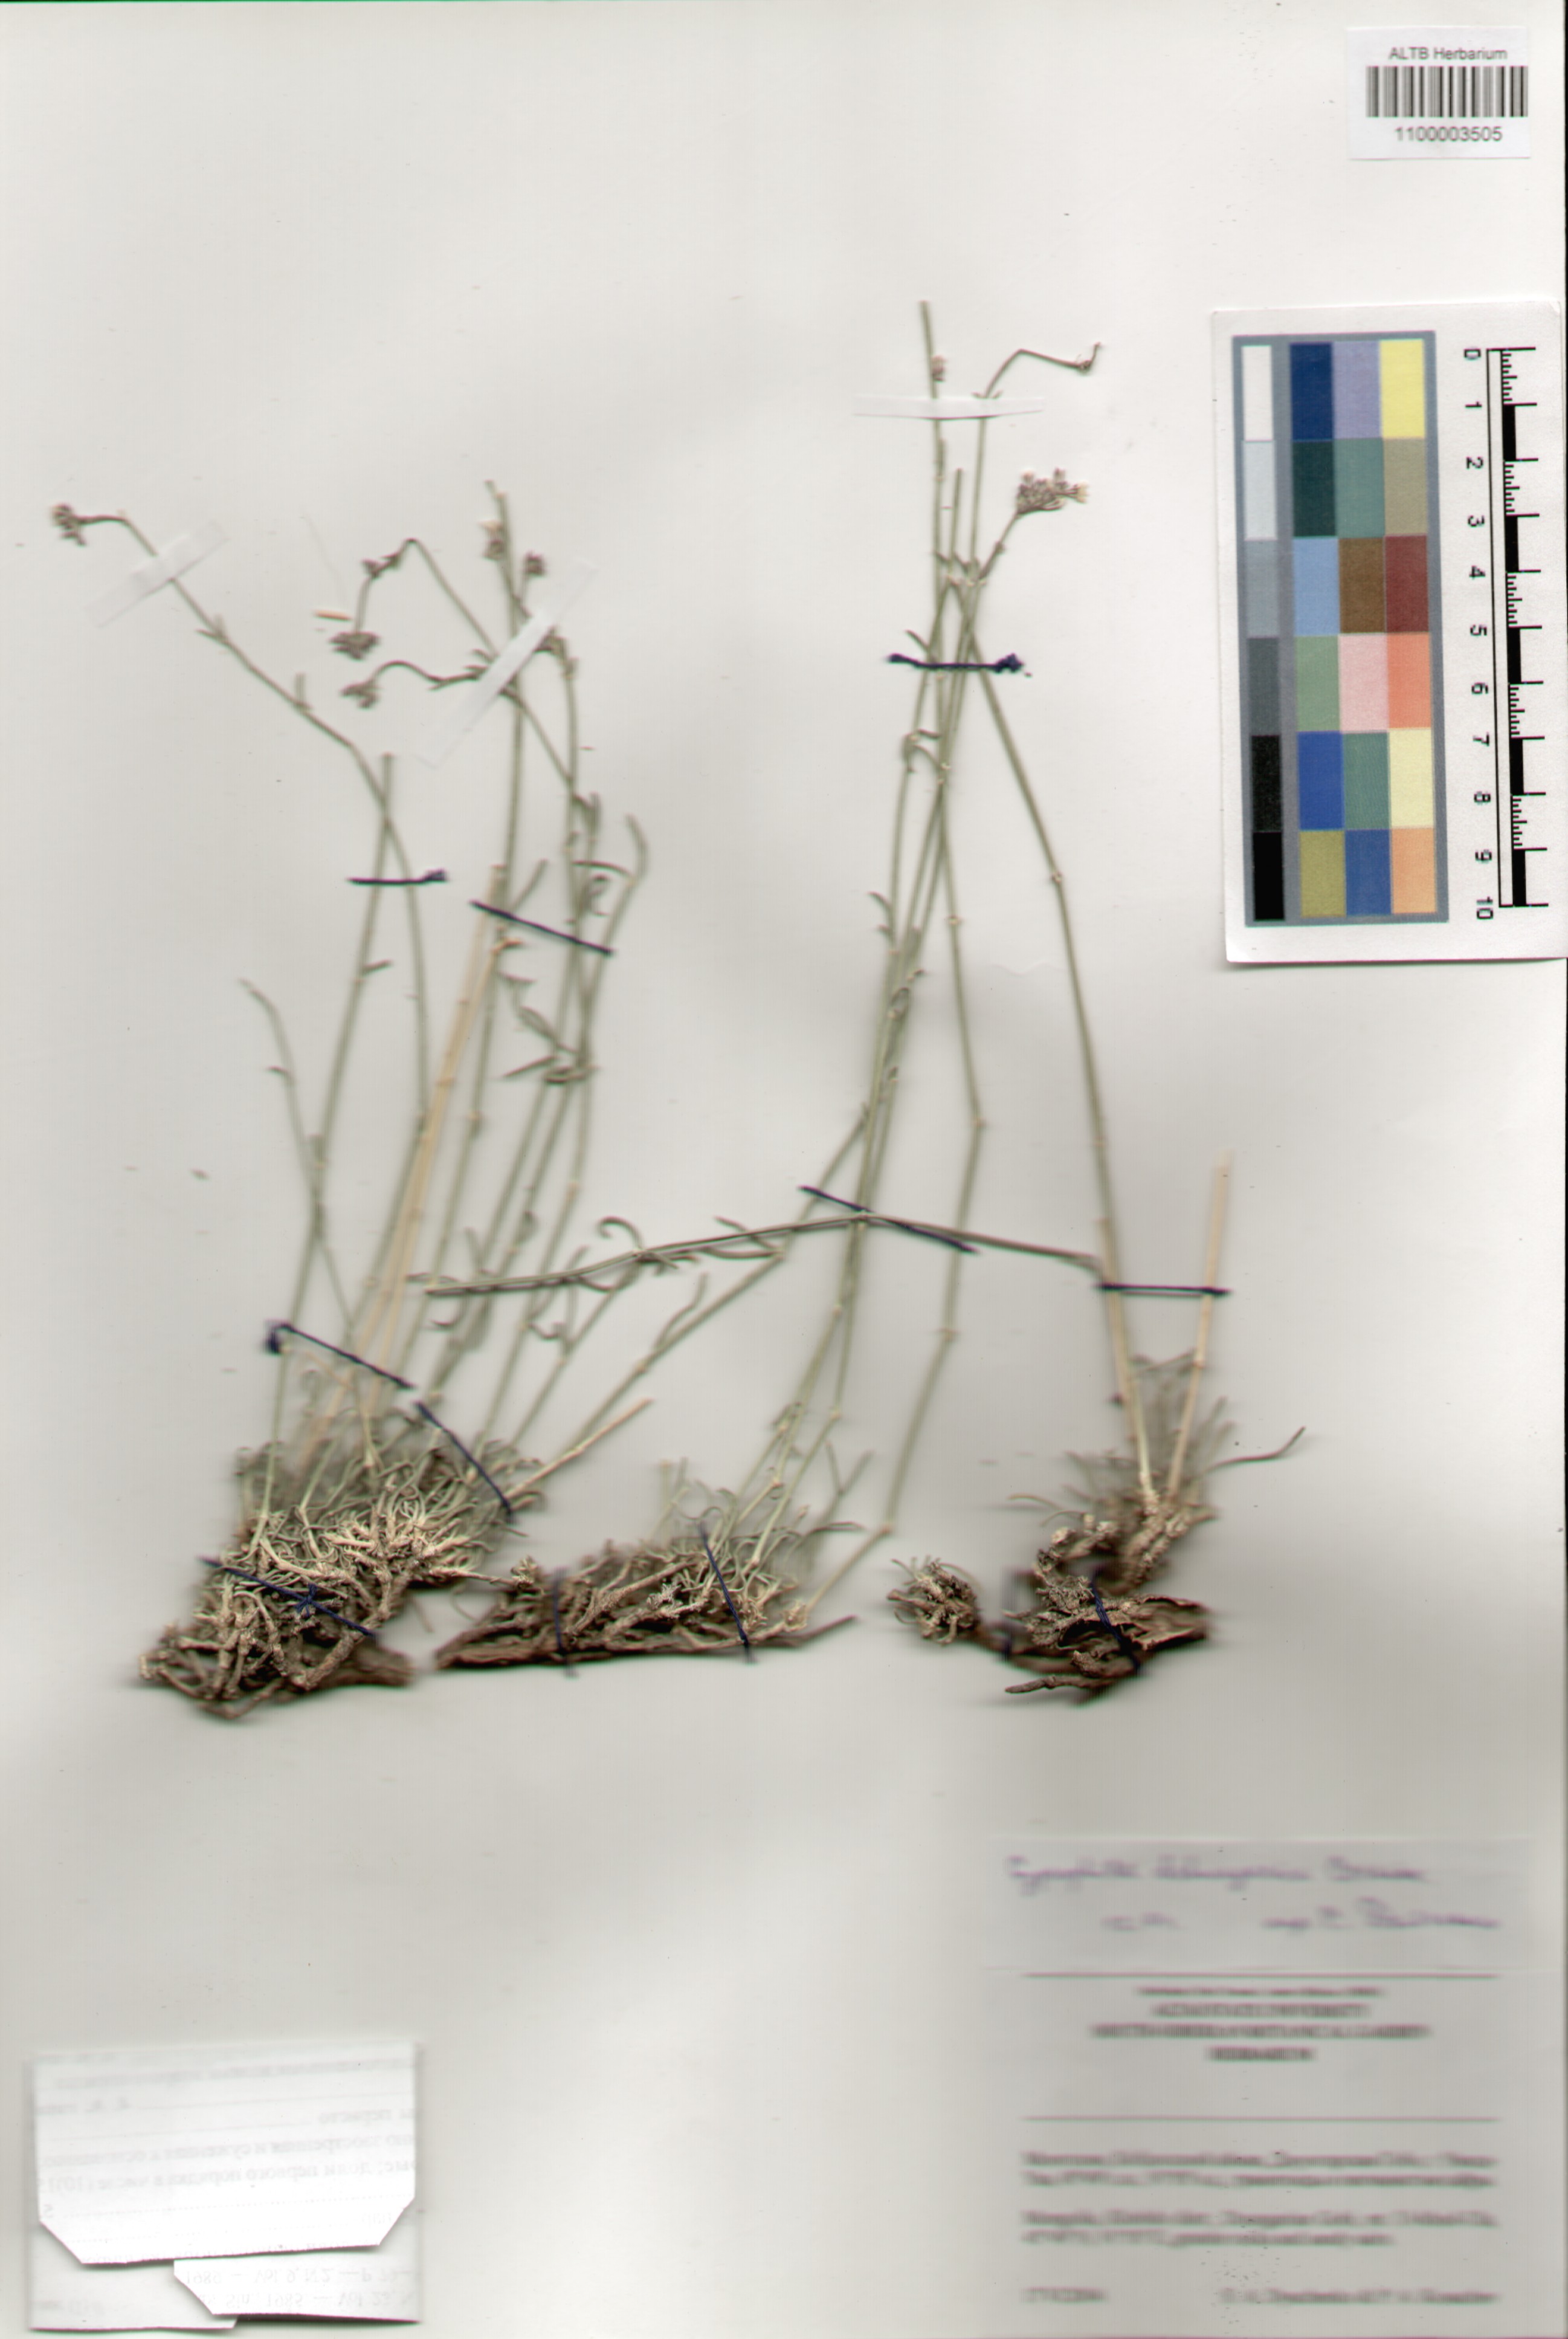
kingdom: Plantae
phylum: Tracheophyta
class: Magnoliopsida
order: Caryophyllales
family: Caryophyllaceae
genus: Gypsophila
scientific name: Gypsophila capituliflora
